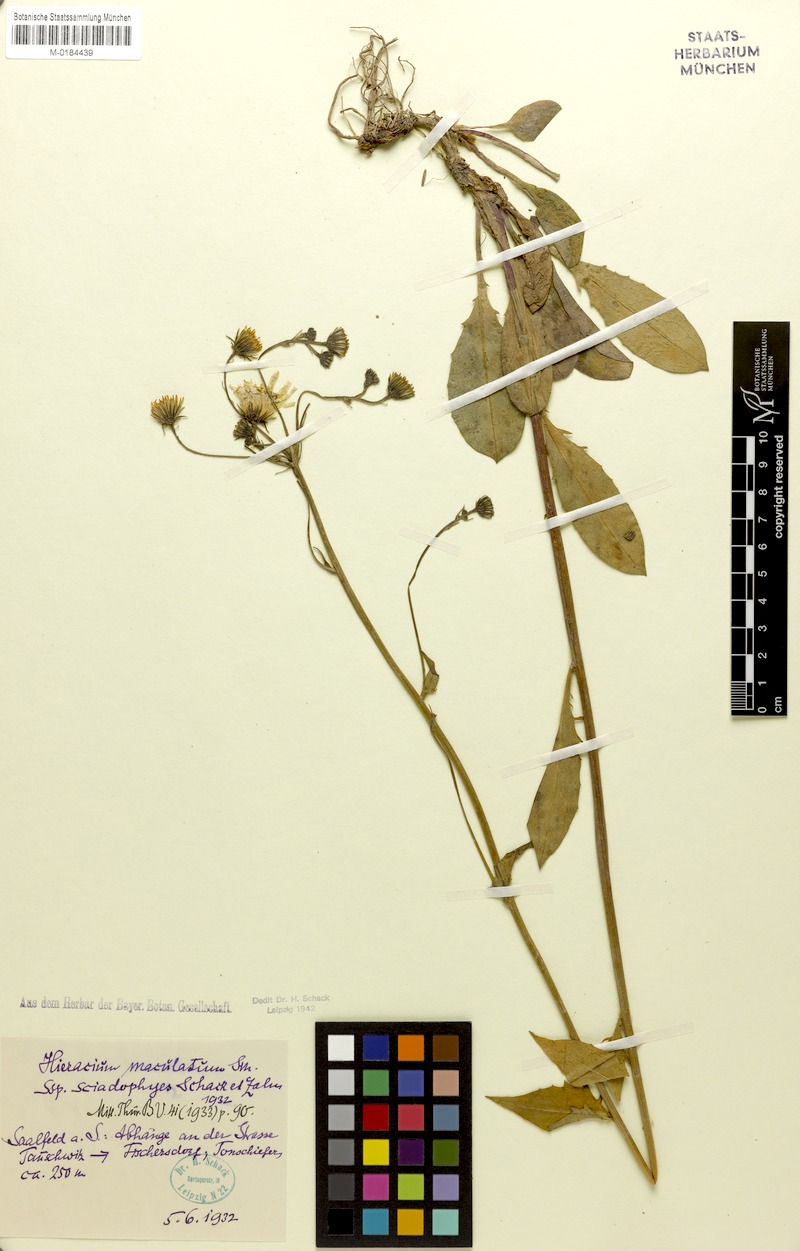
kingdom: Plantae
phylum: Tracheophyta
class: Magnoliopsida
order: Asterales
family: Asteraceae
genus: Hieracium
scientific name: Hieracium maculatum
